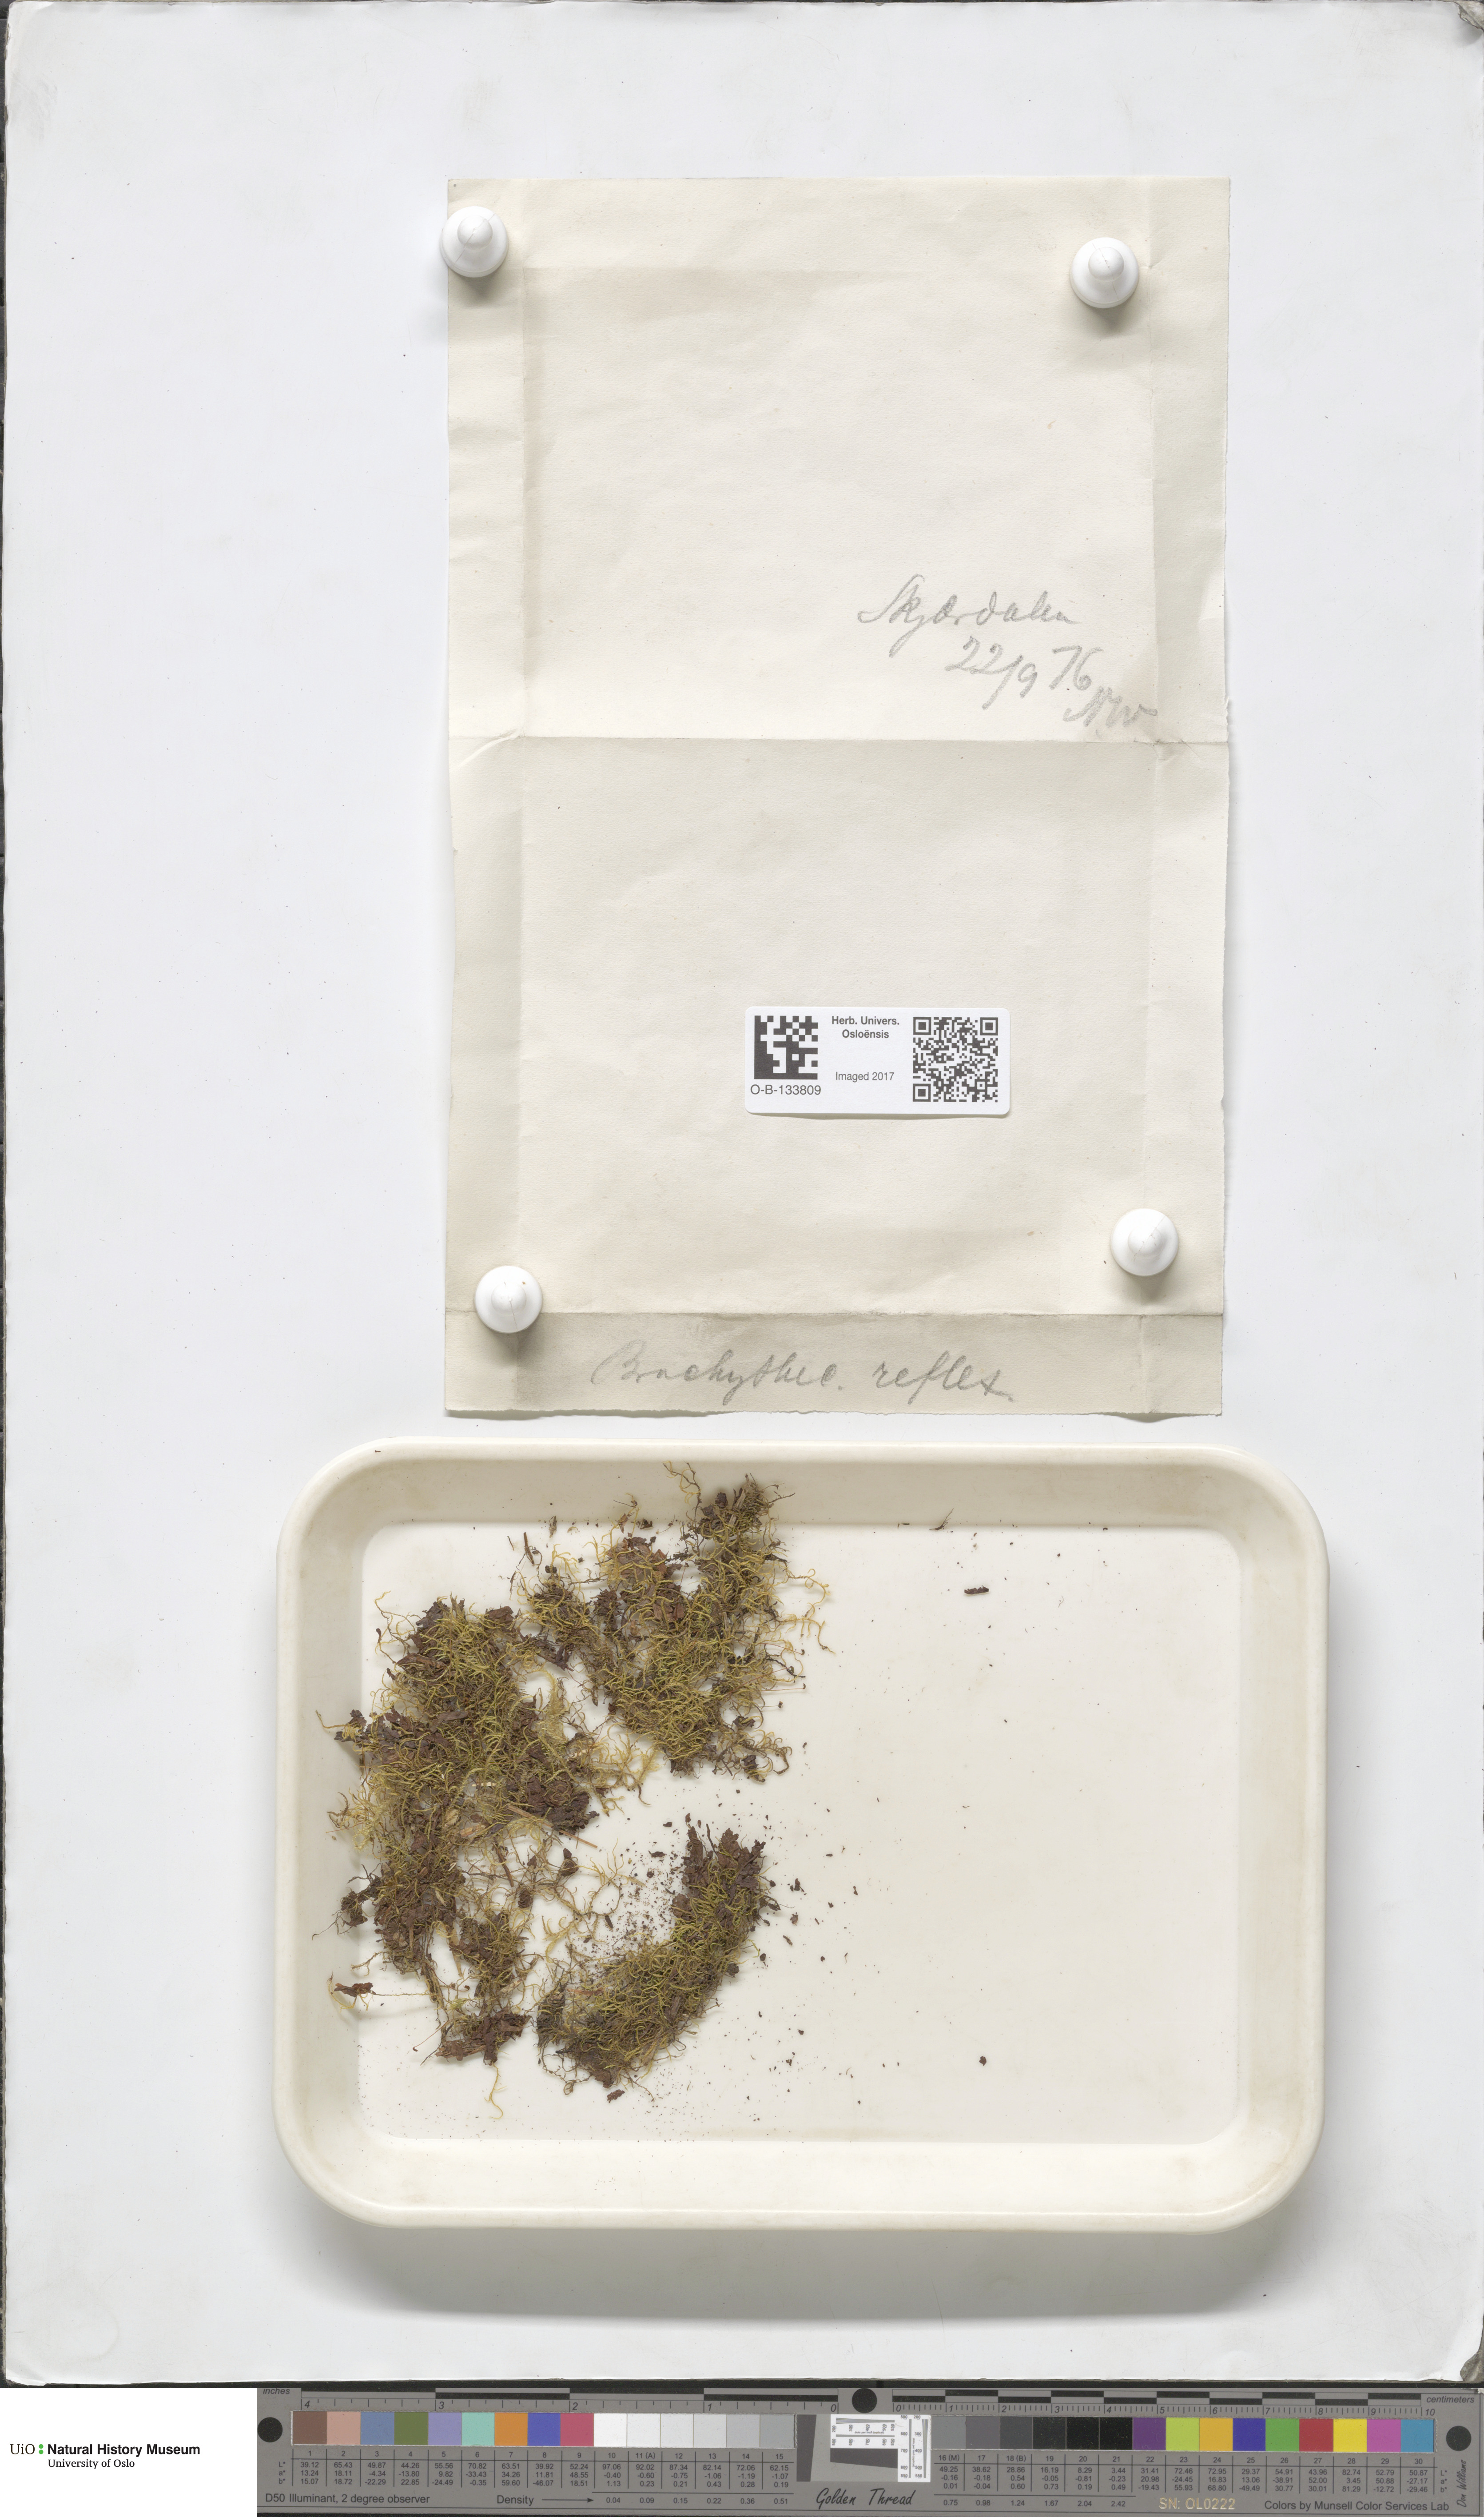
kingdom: Plantae
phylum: Bryophyta
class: Bryopsida
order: Hypnales
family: Brachytheciaceae
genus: Sciuro-hypnum
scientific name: Sciuro-hypnum reflexum
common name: Reflexed feather-moss
